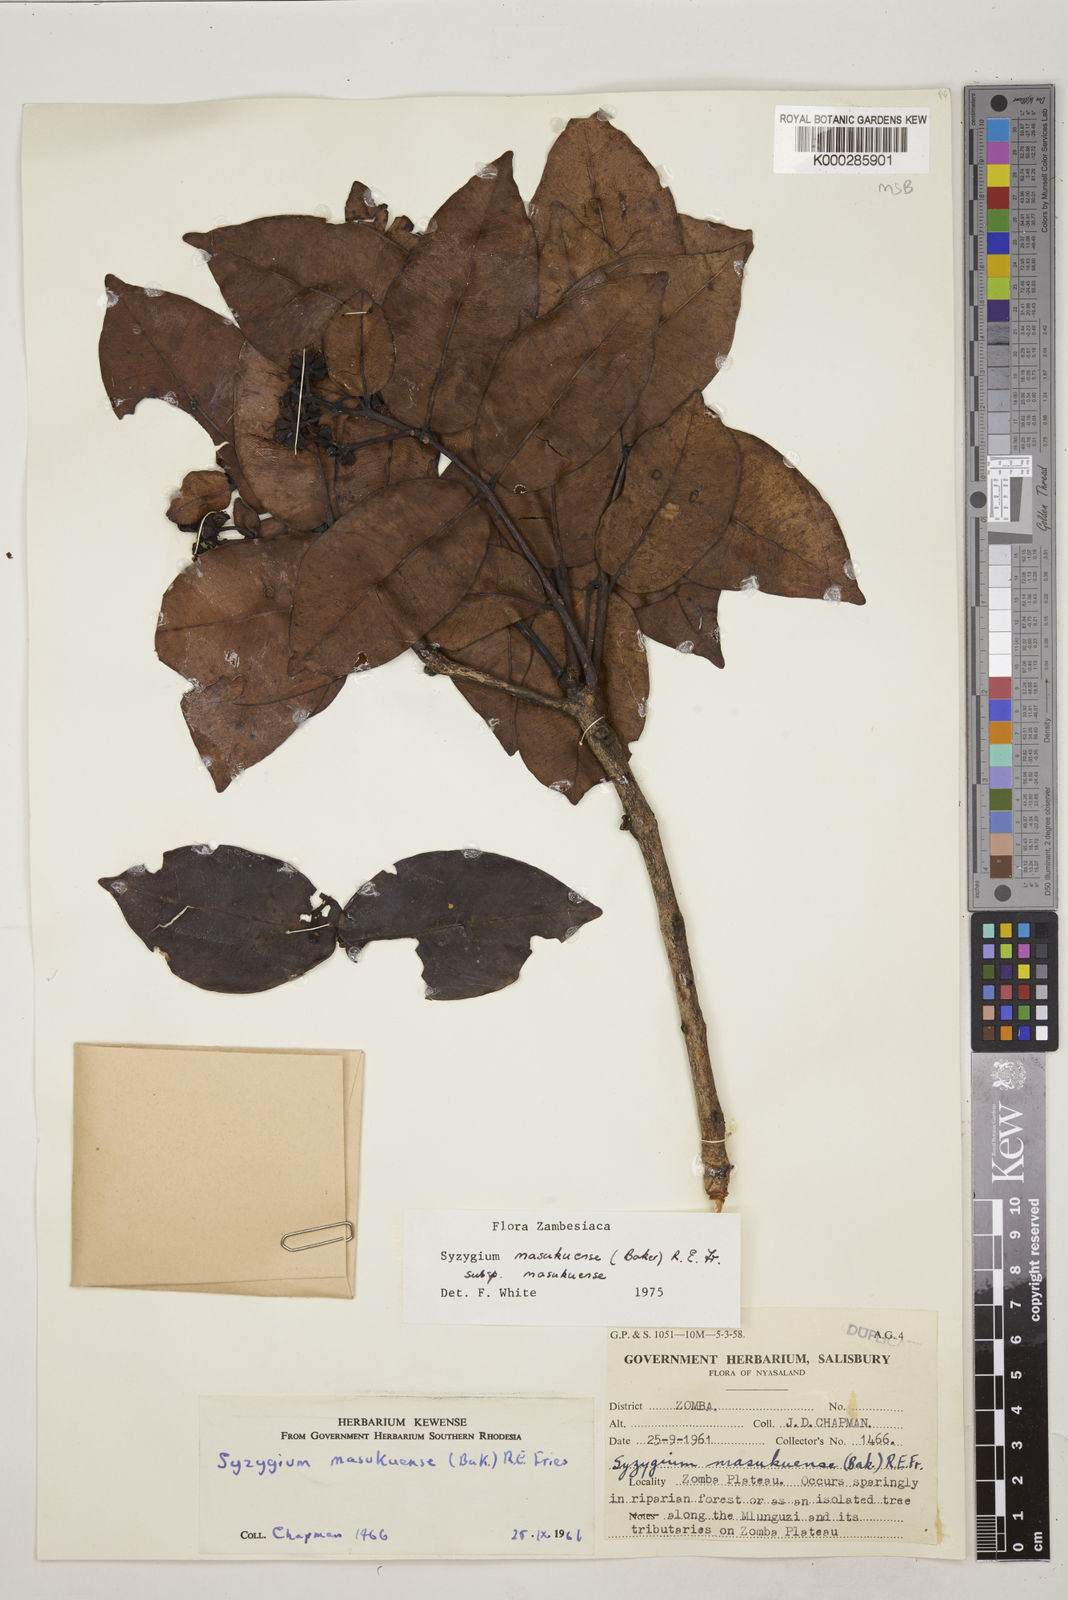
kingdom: Plantae
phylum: Tracheophyta
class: Magnoliopsida
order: Myrtales
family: Myrtaceae
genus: Syzygium
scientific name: Syzygium masukuense
